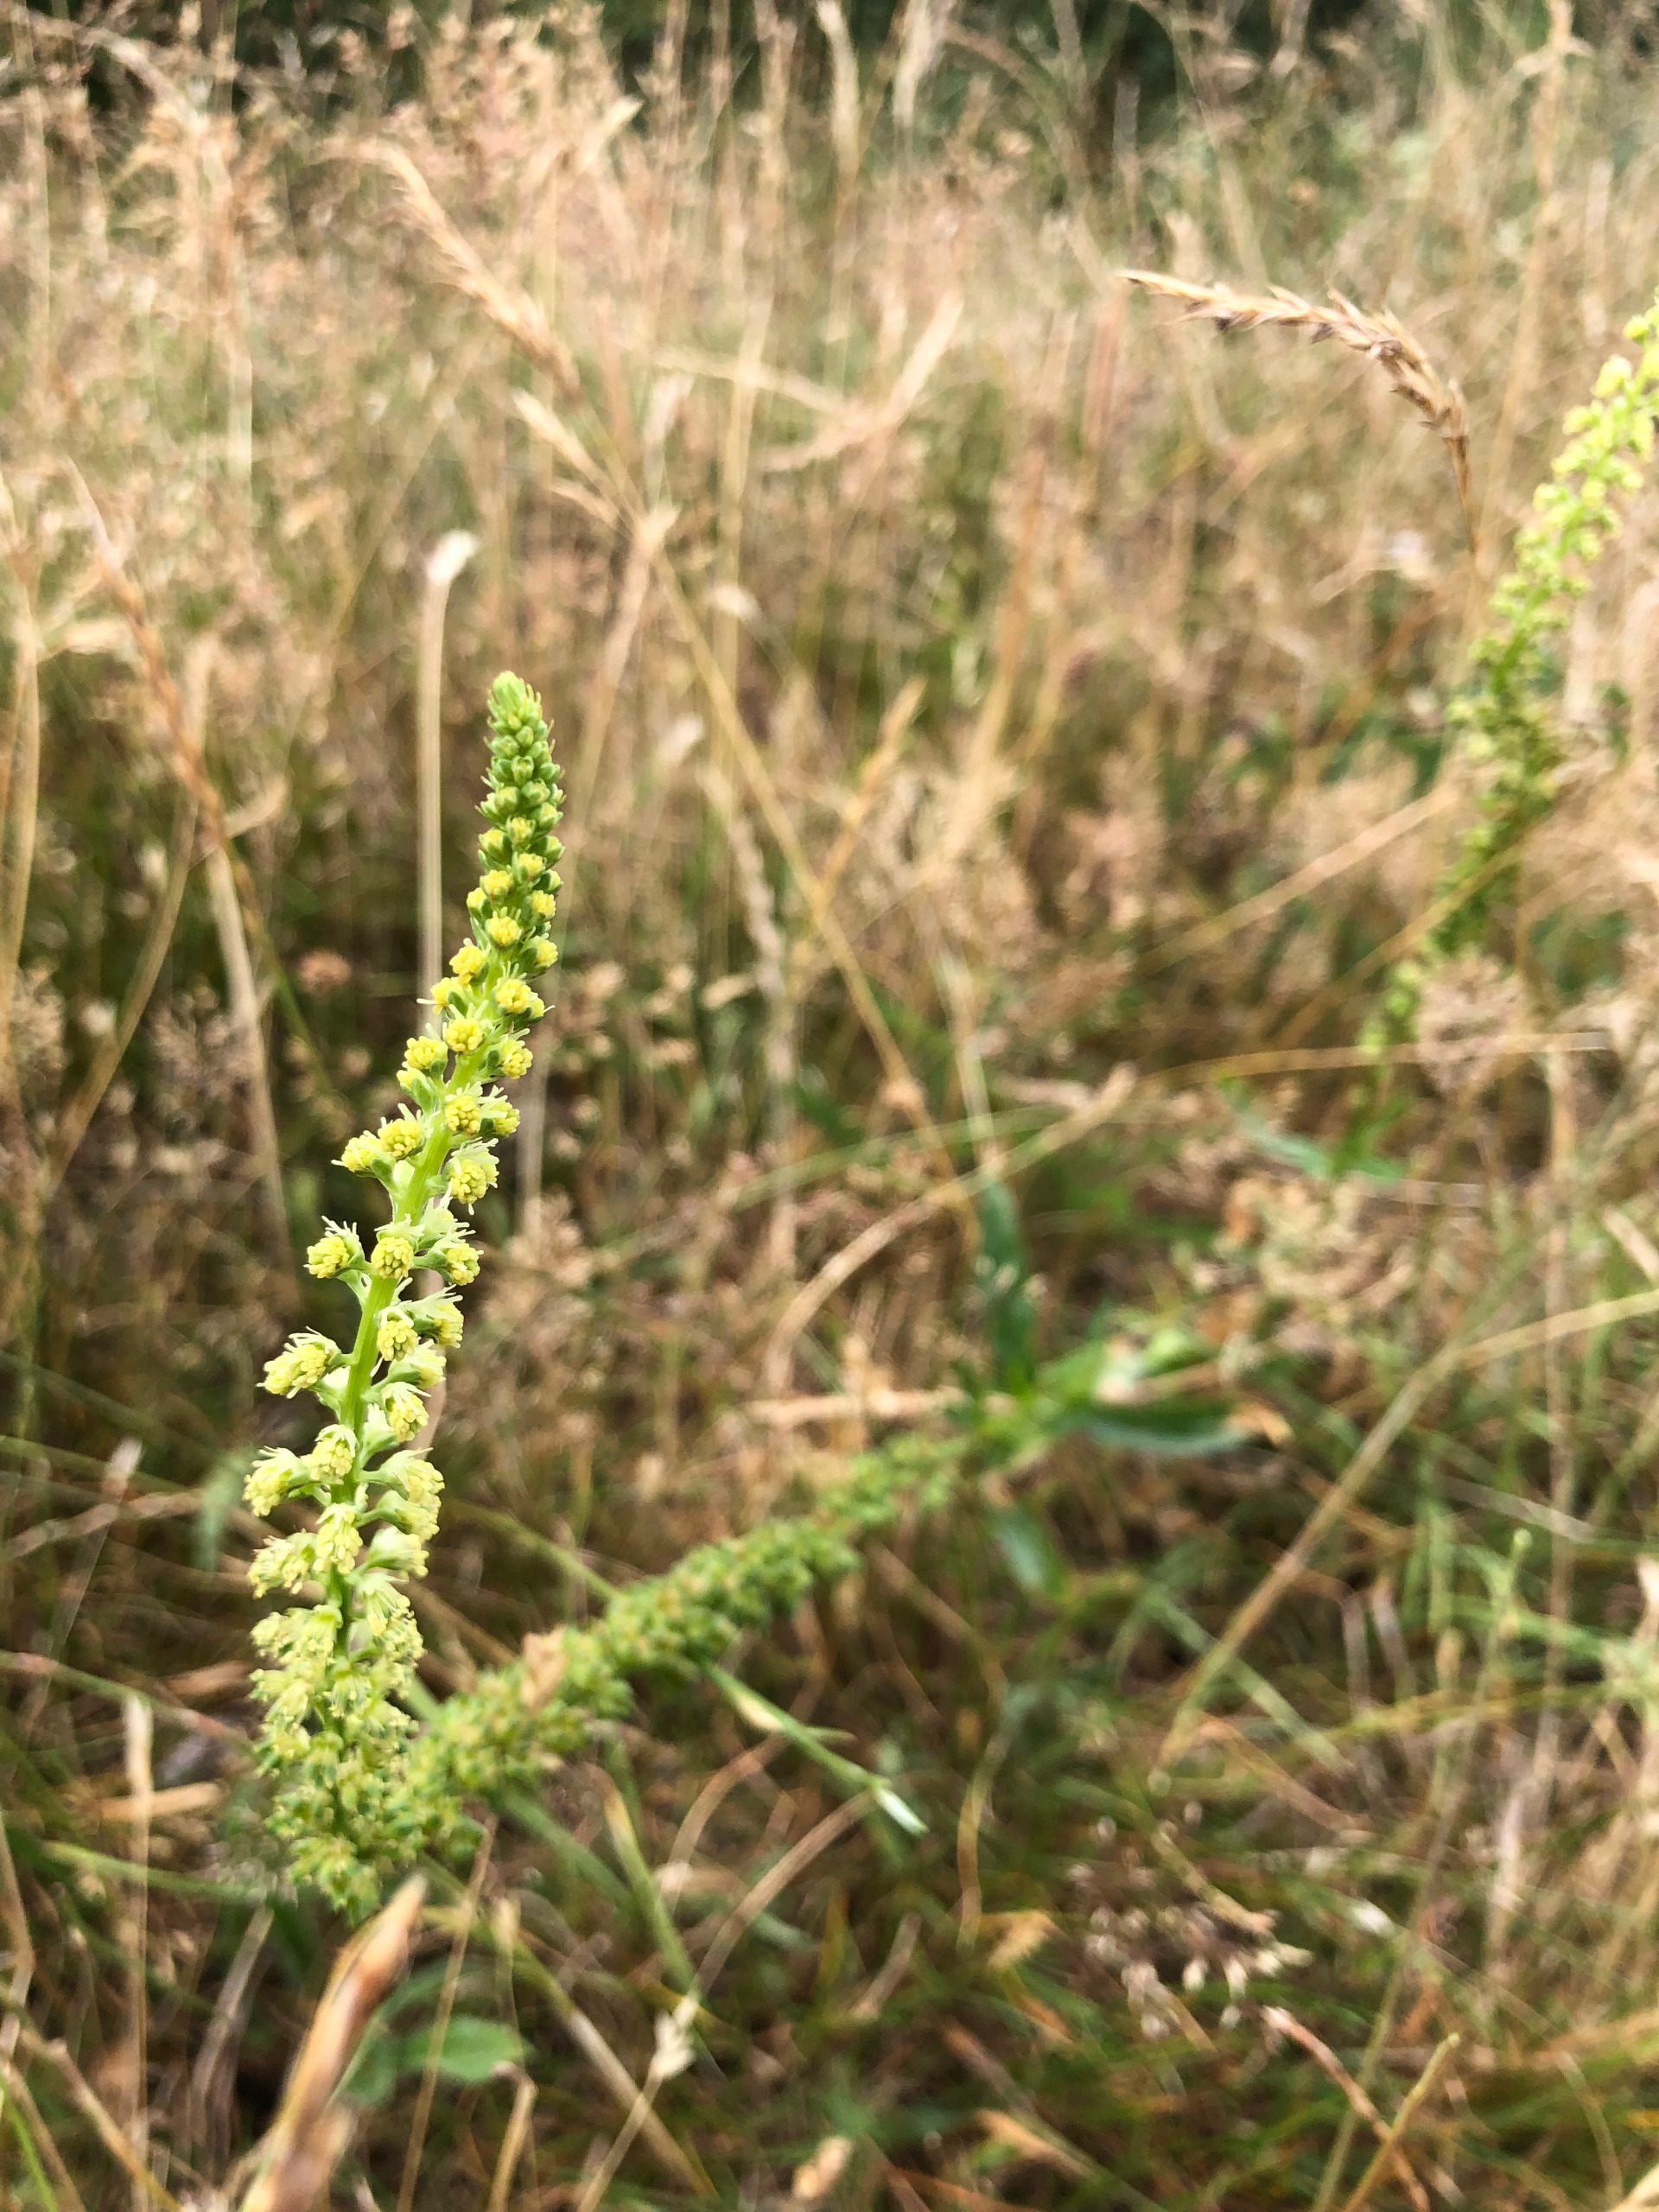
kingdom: Plantae
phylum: Tracheophyta
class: Magnoliopsida
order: Brassicales
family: Resedaceae
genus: Reseda
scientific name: Reseda luteola
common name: Farve-reseda
